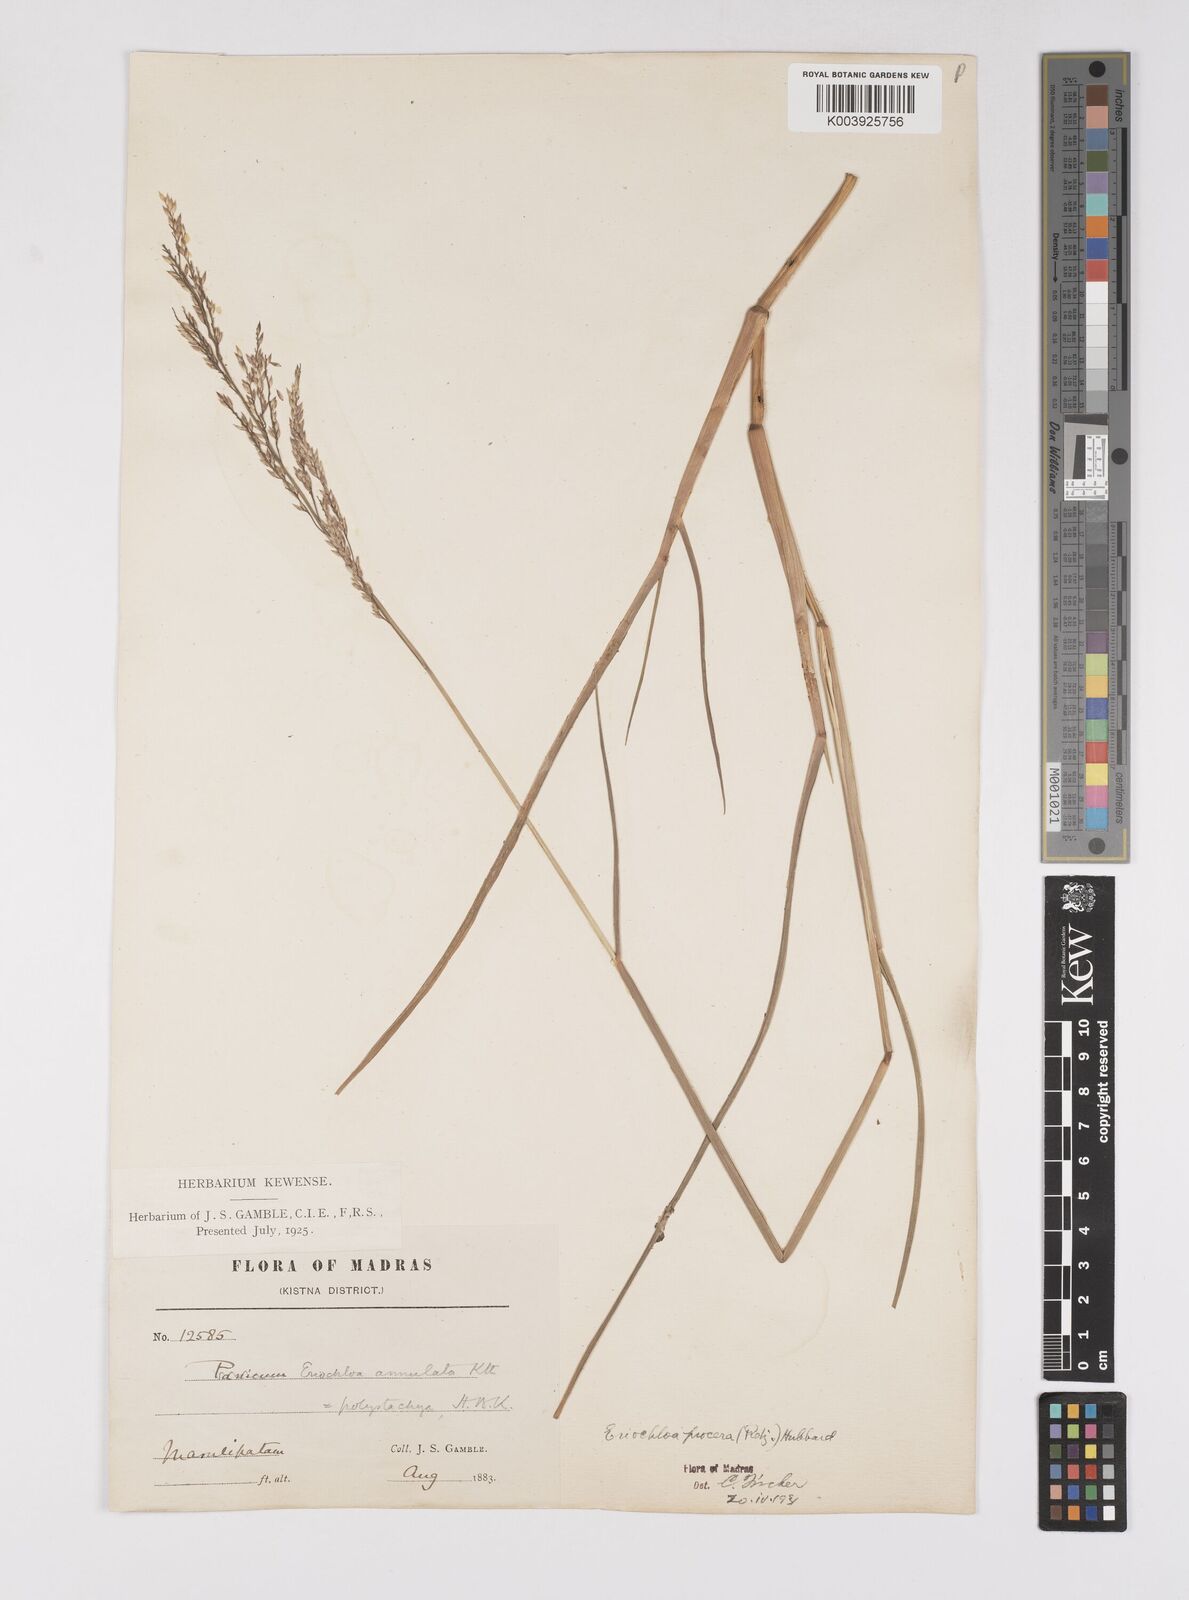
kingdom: Plantae
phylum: Tracheophyta
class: Liliopsida
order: Poales
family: Poaceae
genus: Eriochloa
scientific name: Eriochloa procera
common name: Spring grass
